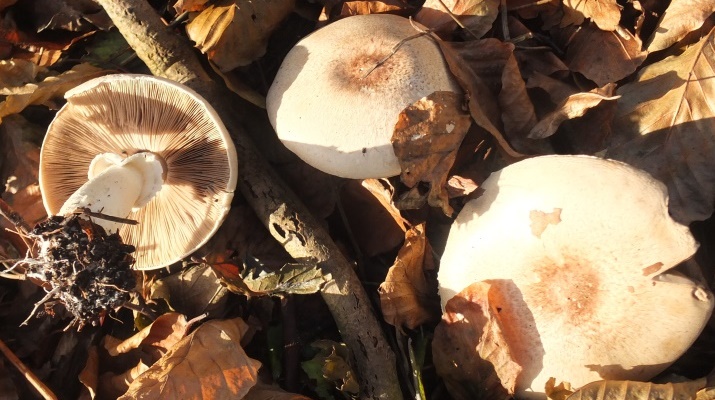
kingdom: Fungi
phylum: Basidiomycota
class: Agaricomycetes
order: Agaricales
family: Agaricaceae
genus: Agaricus
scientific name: Agaricus impudicus
